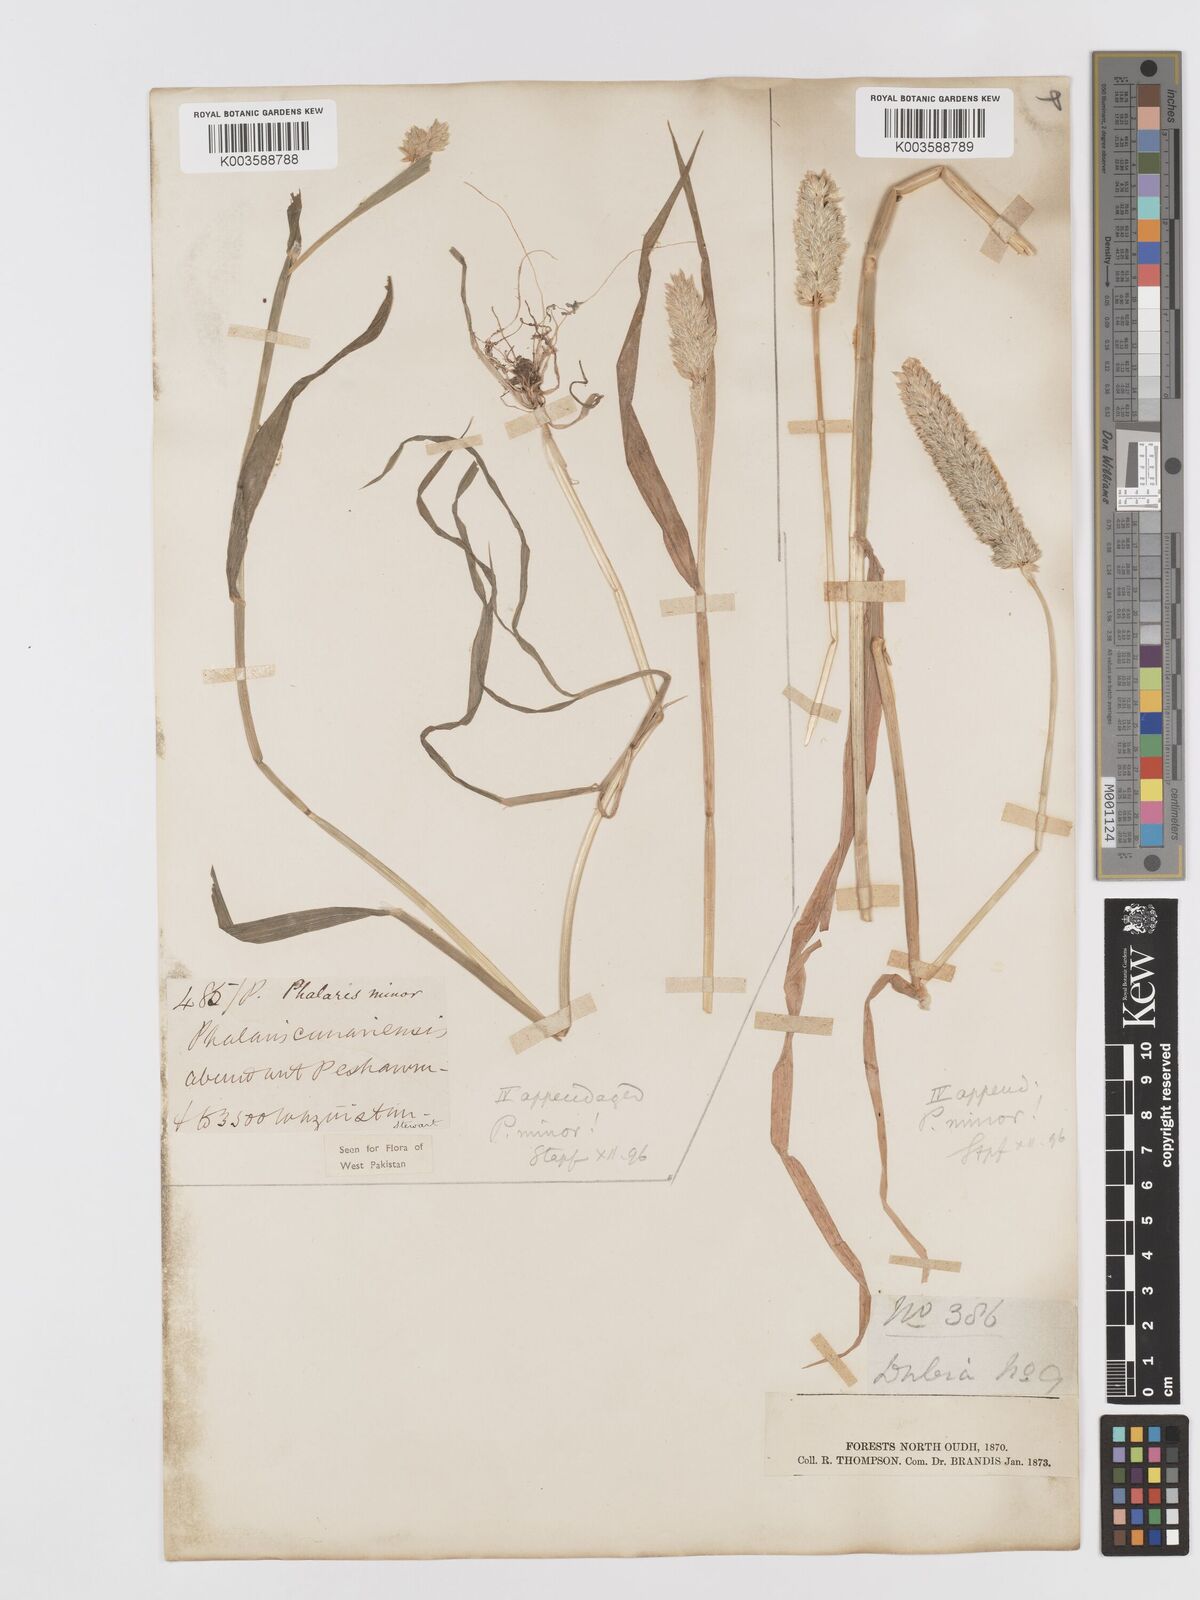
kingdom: Plantae
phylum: Tracheophyta
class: Liliopsida
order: Poales
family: Poaceae
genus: Phalaris
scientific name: Phalaris minor
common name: Littleseed canarygrass
